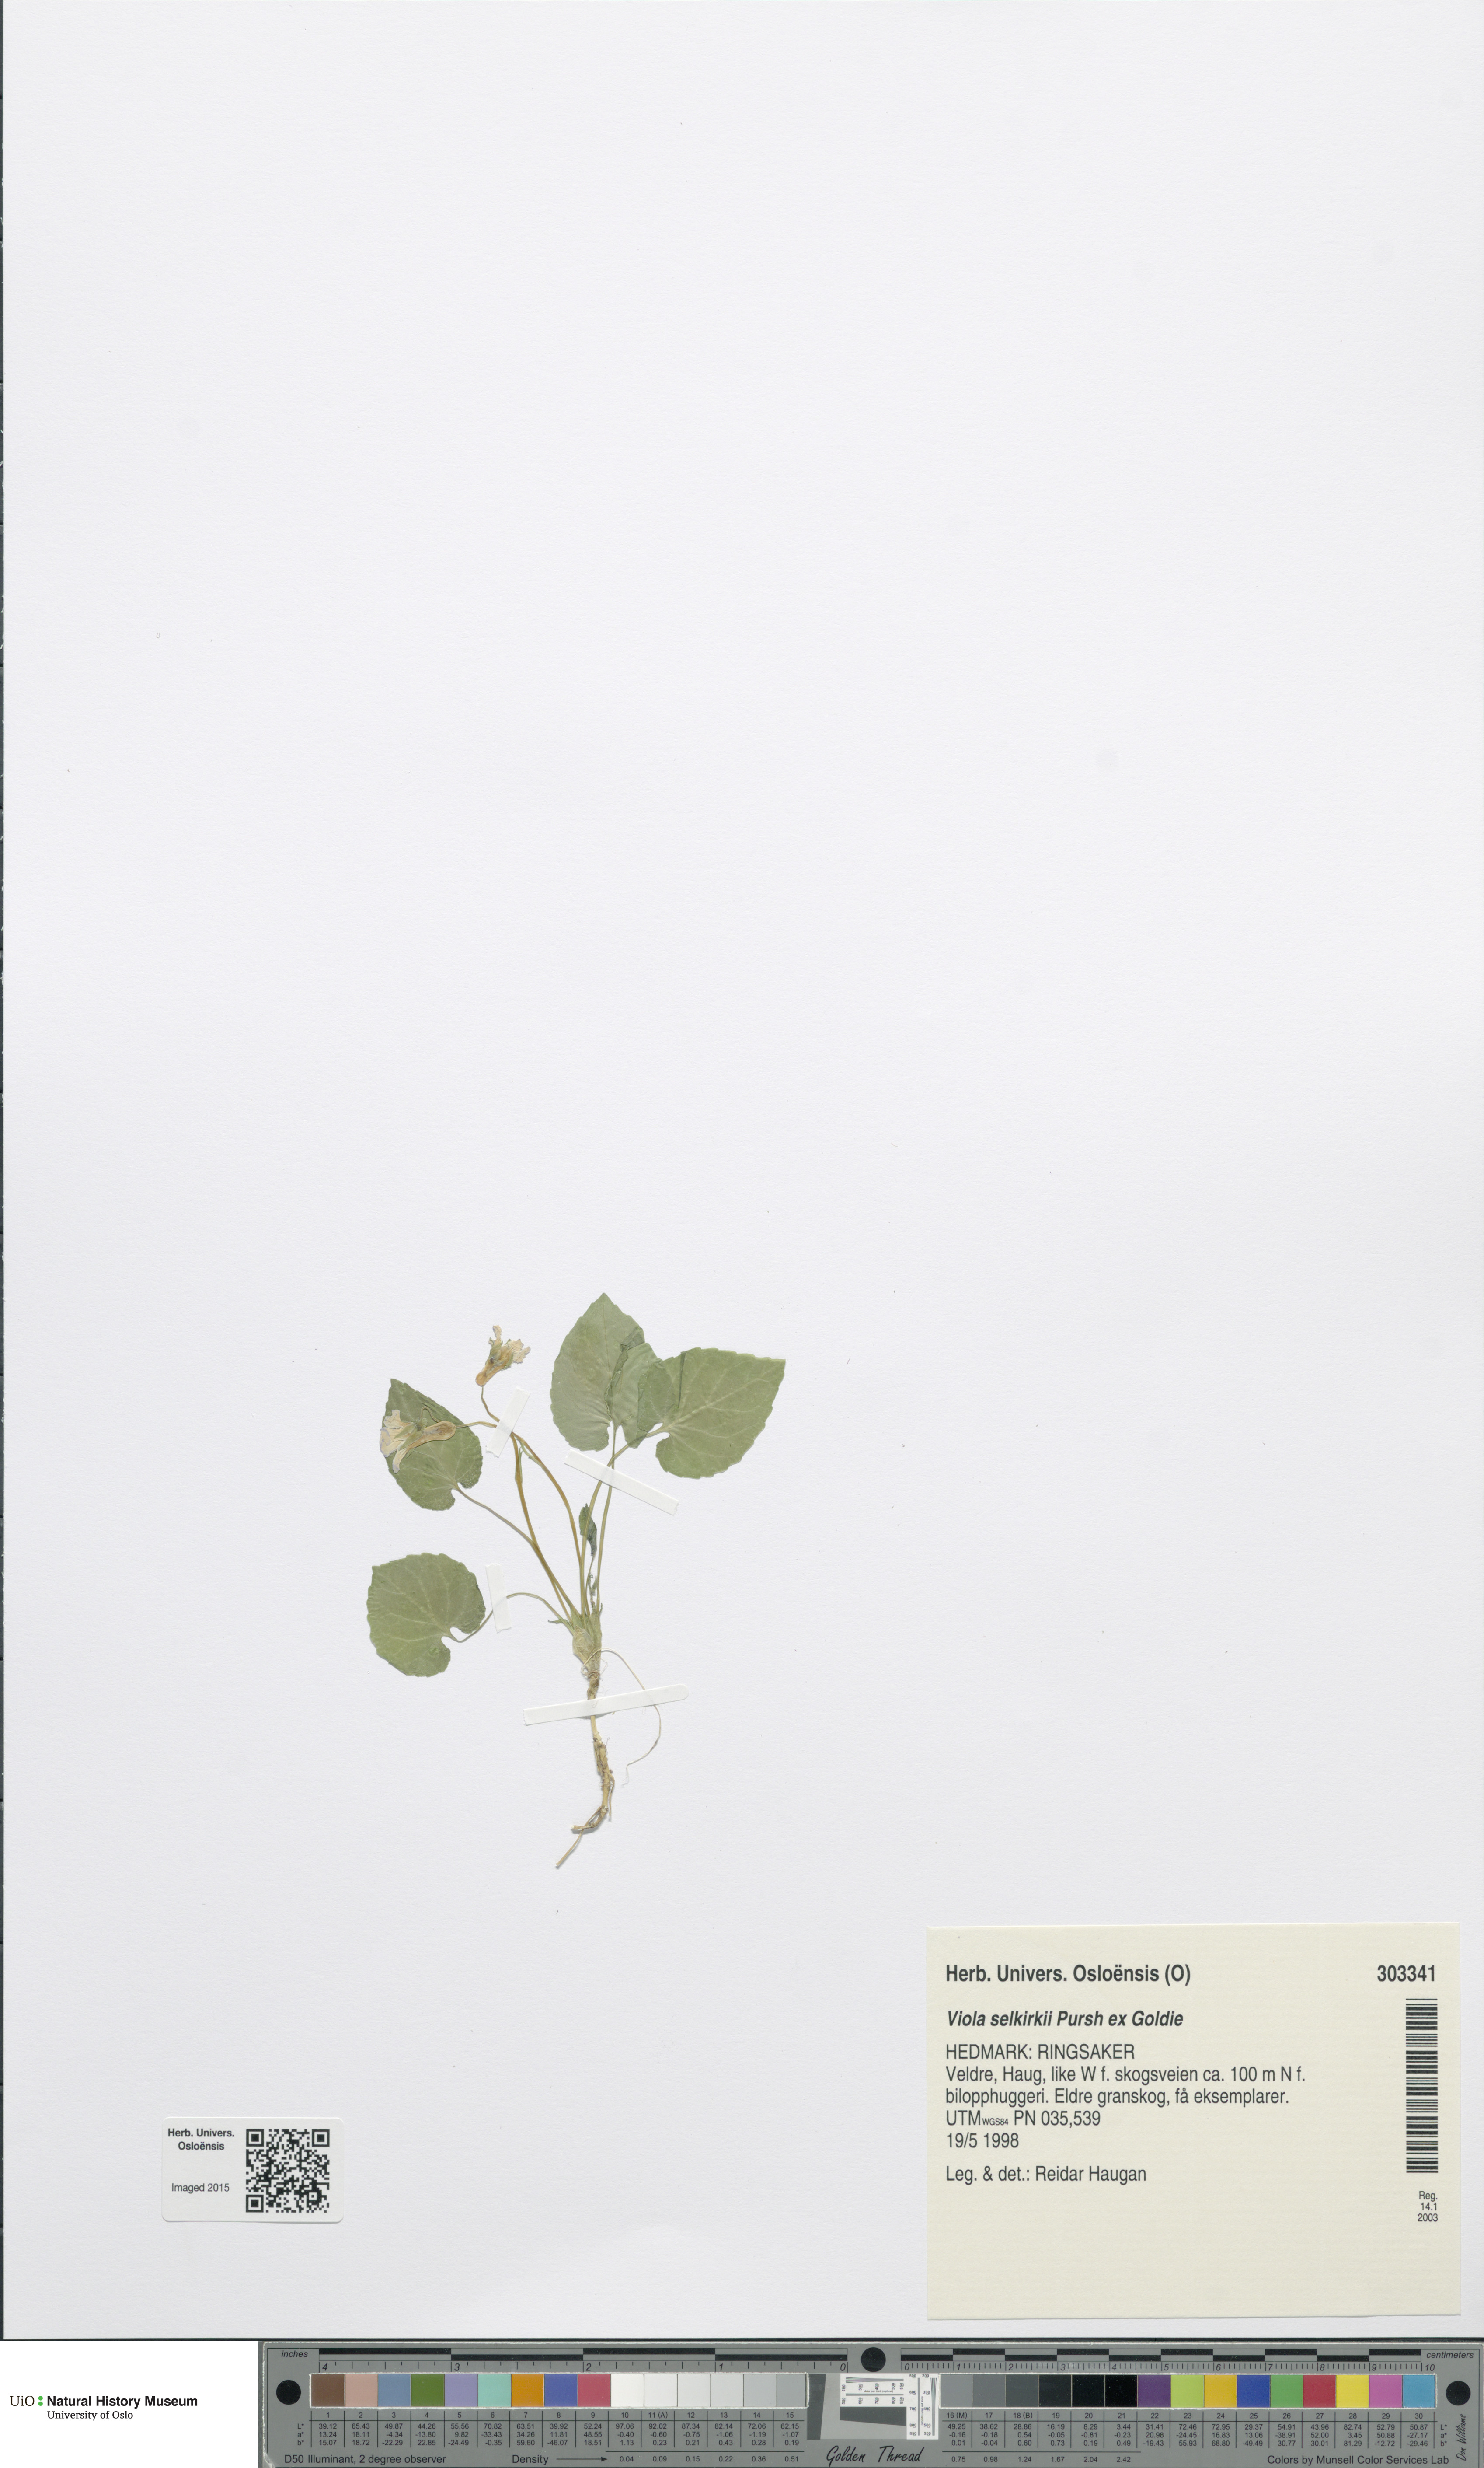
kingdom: Plantae
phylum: Tracheophyta
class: Magnoliopsida
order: Malpighiales
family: Violaceae
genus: Viola
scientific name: Viola selkirkii
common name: Selkirk's violet
